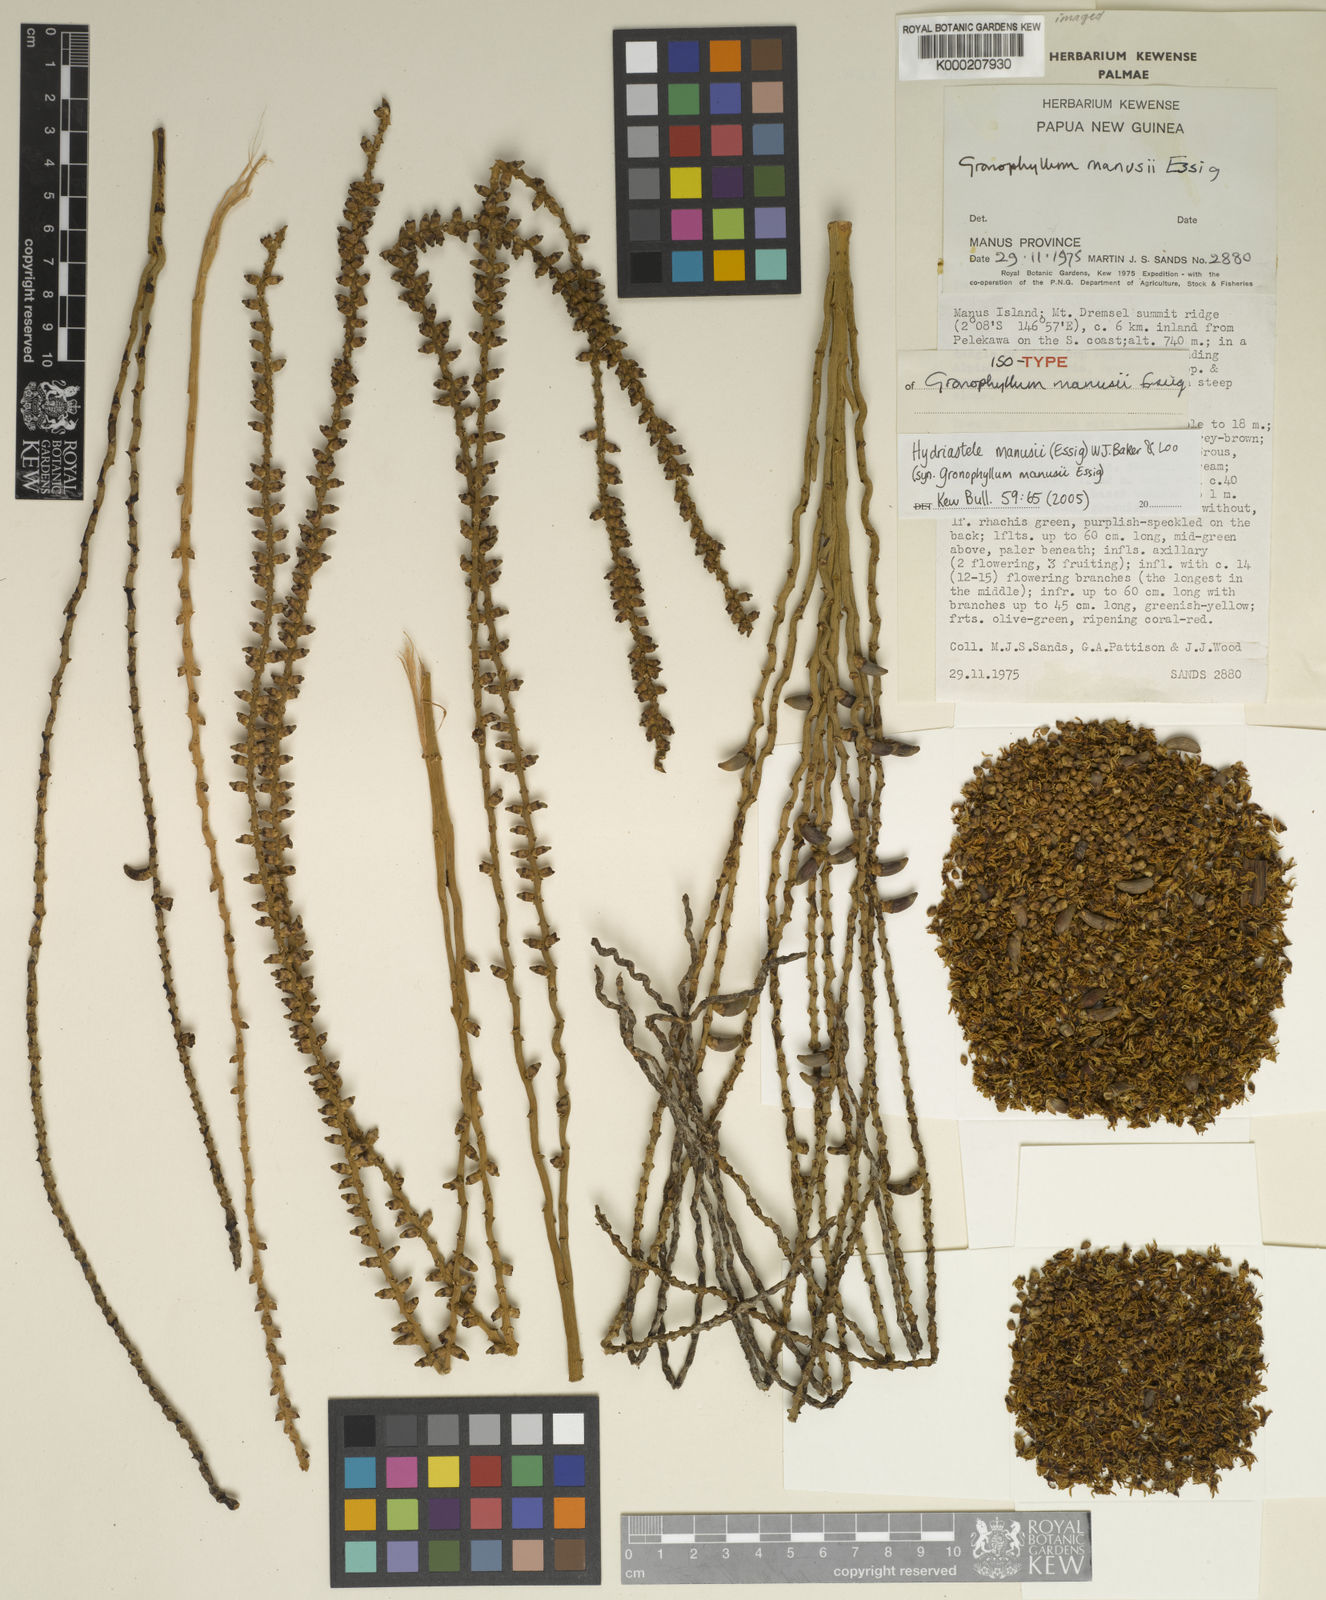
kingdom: Plantae
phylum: Tracheophyta
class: Liliopsida
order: Arecales
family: Arecaceae
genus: Hydriastele
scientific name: Hydriastele manusii
